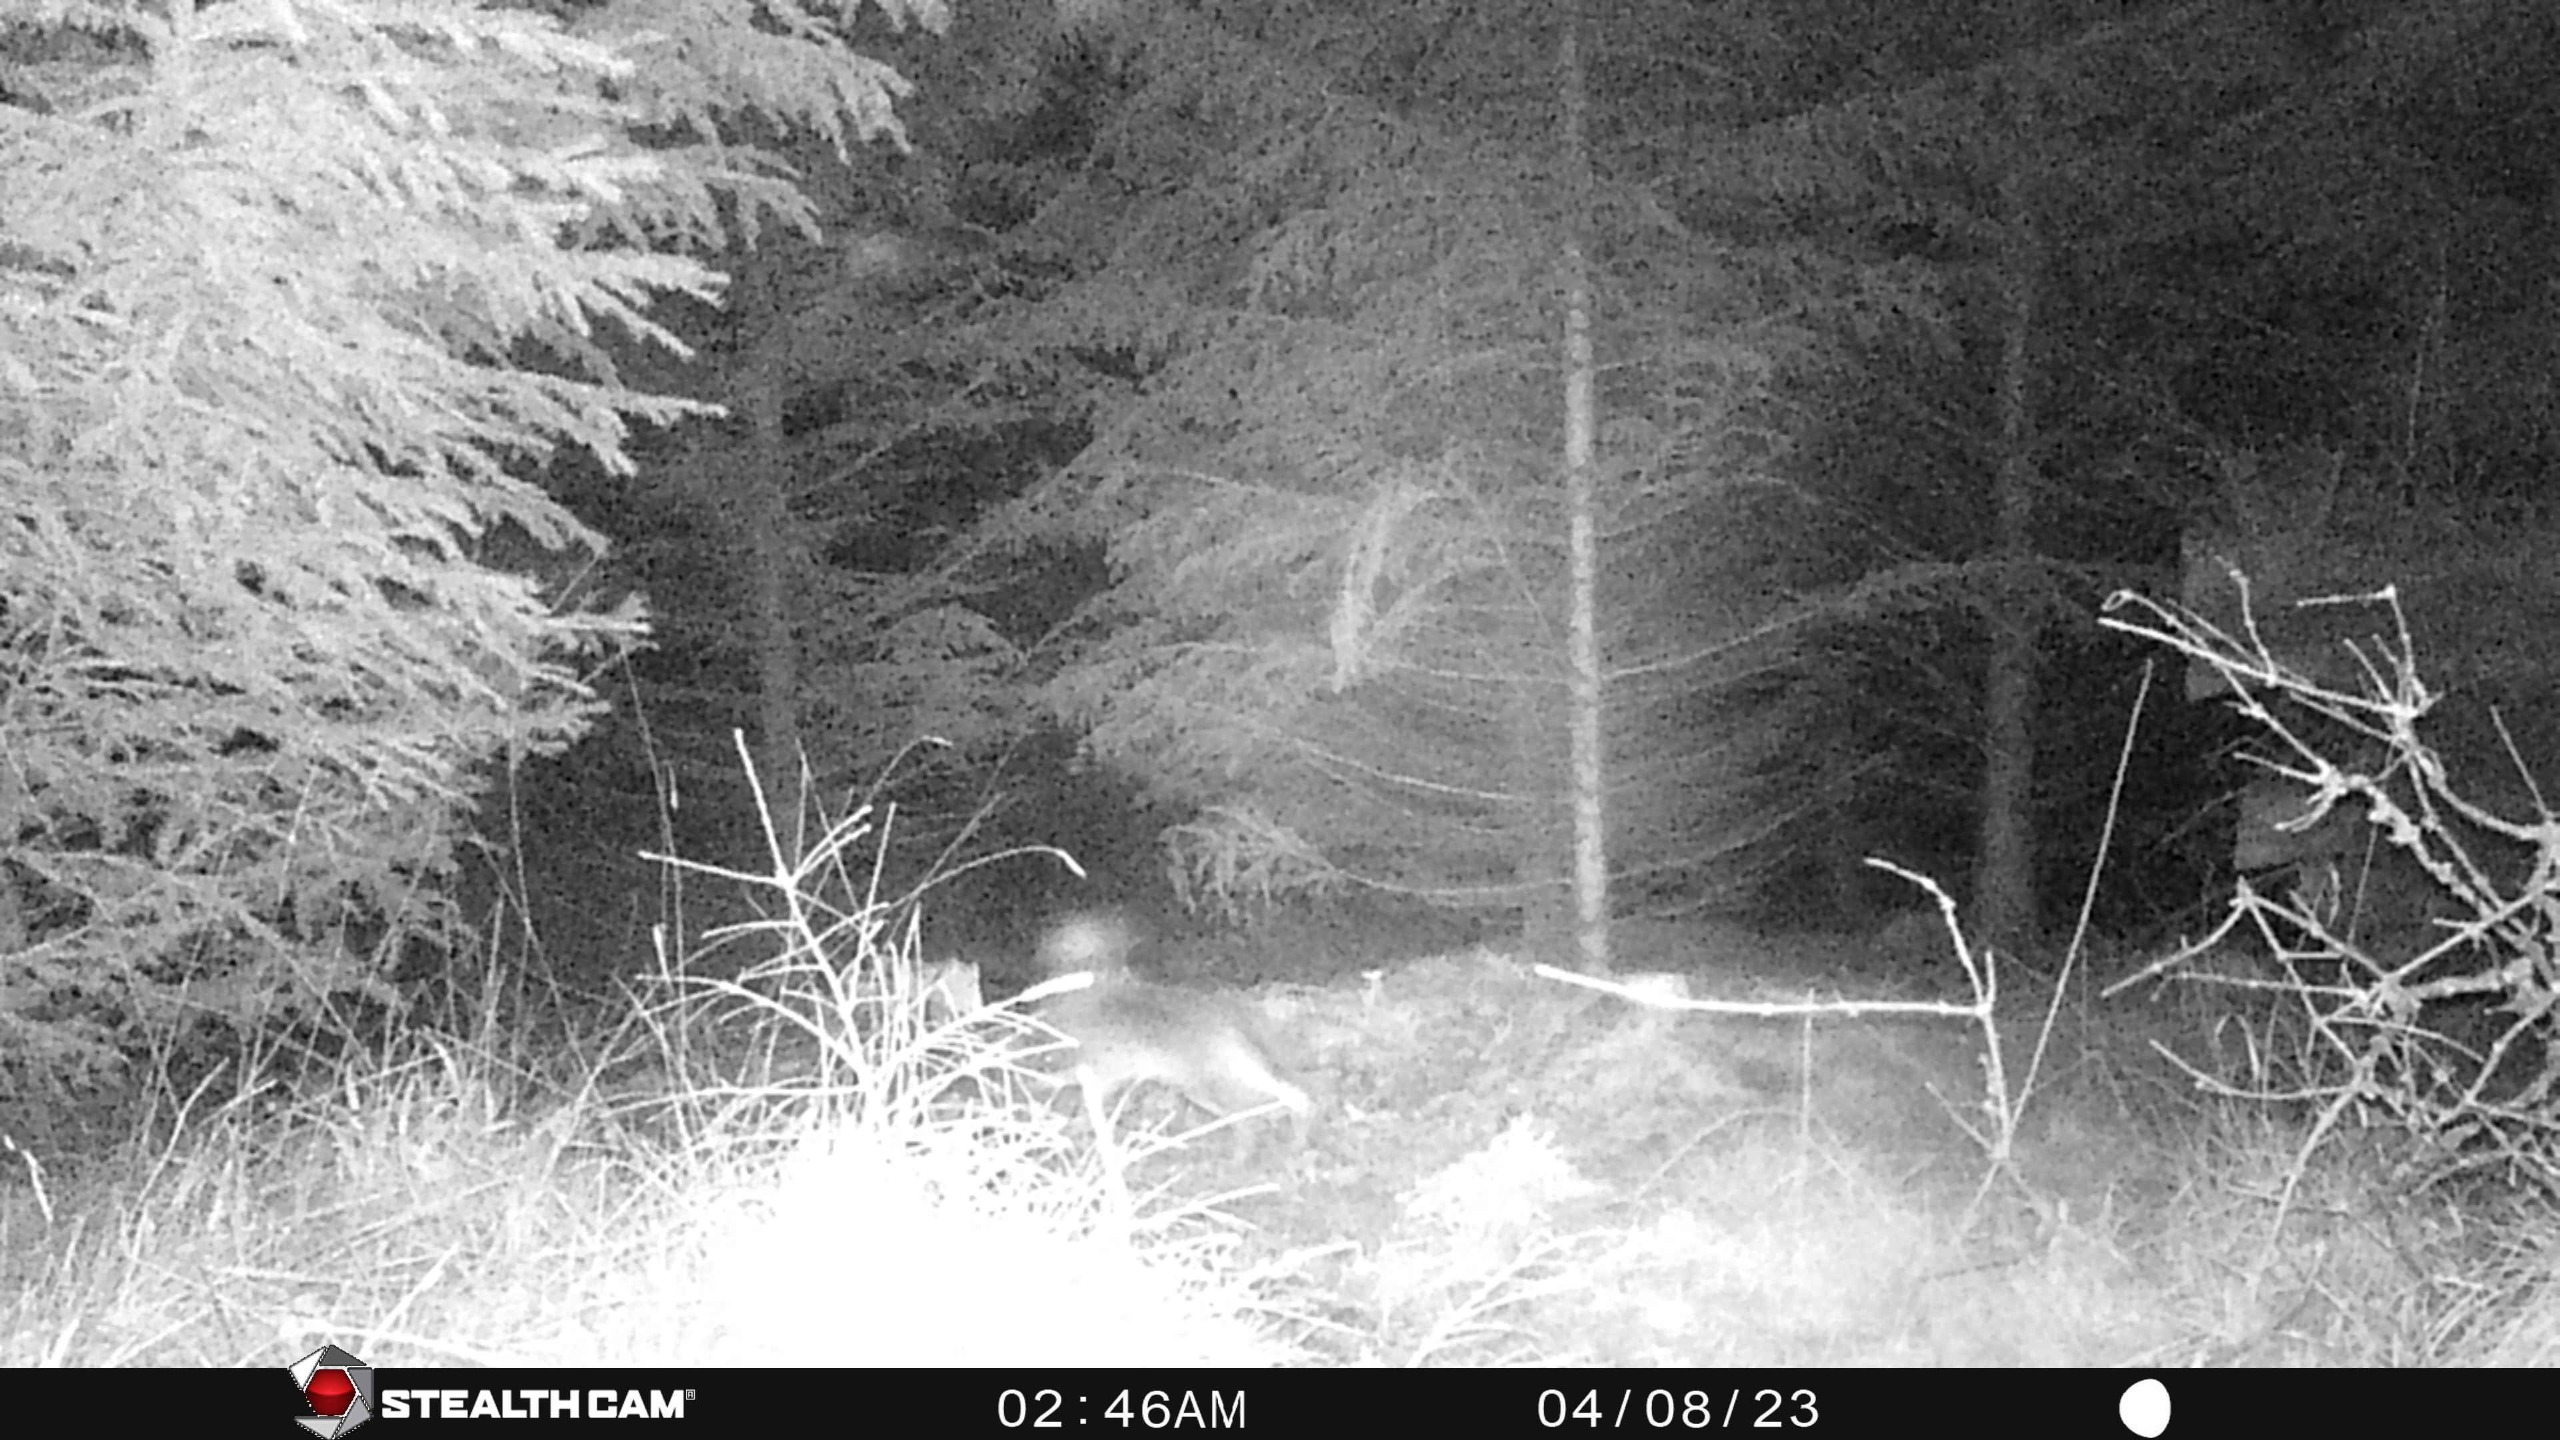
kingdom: Animalia
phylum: Chordata
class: Mammalia
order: Lagomorpha
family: Leporidae
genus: Lepus
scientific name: Lepus europaeus
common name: Hare
